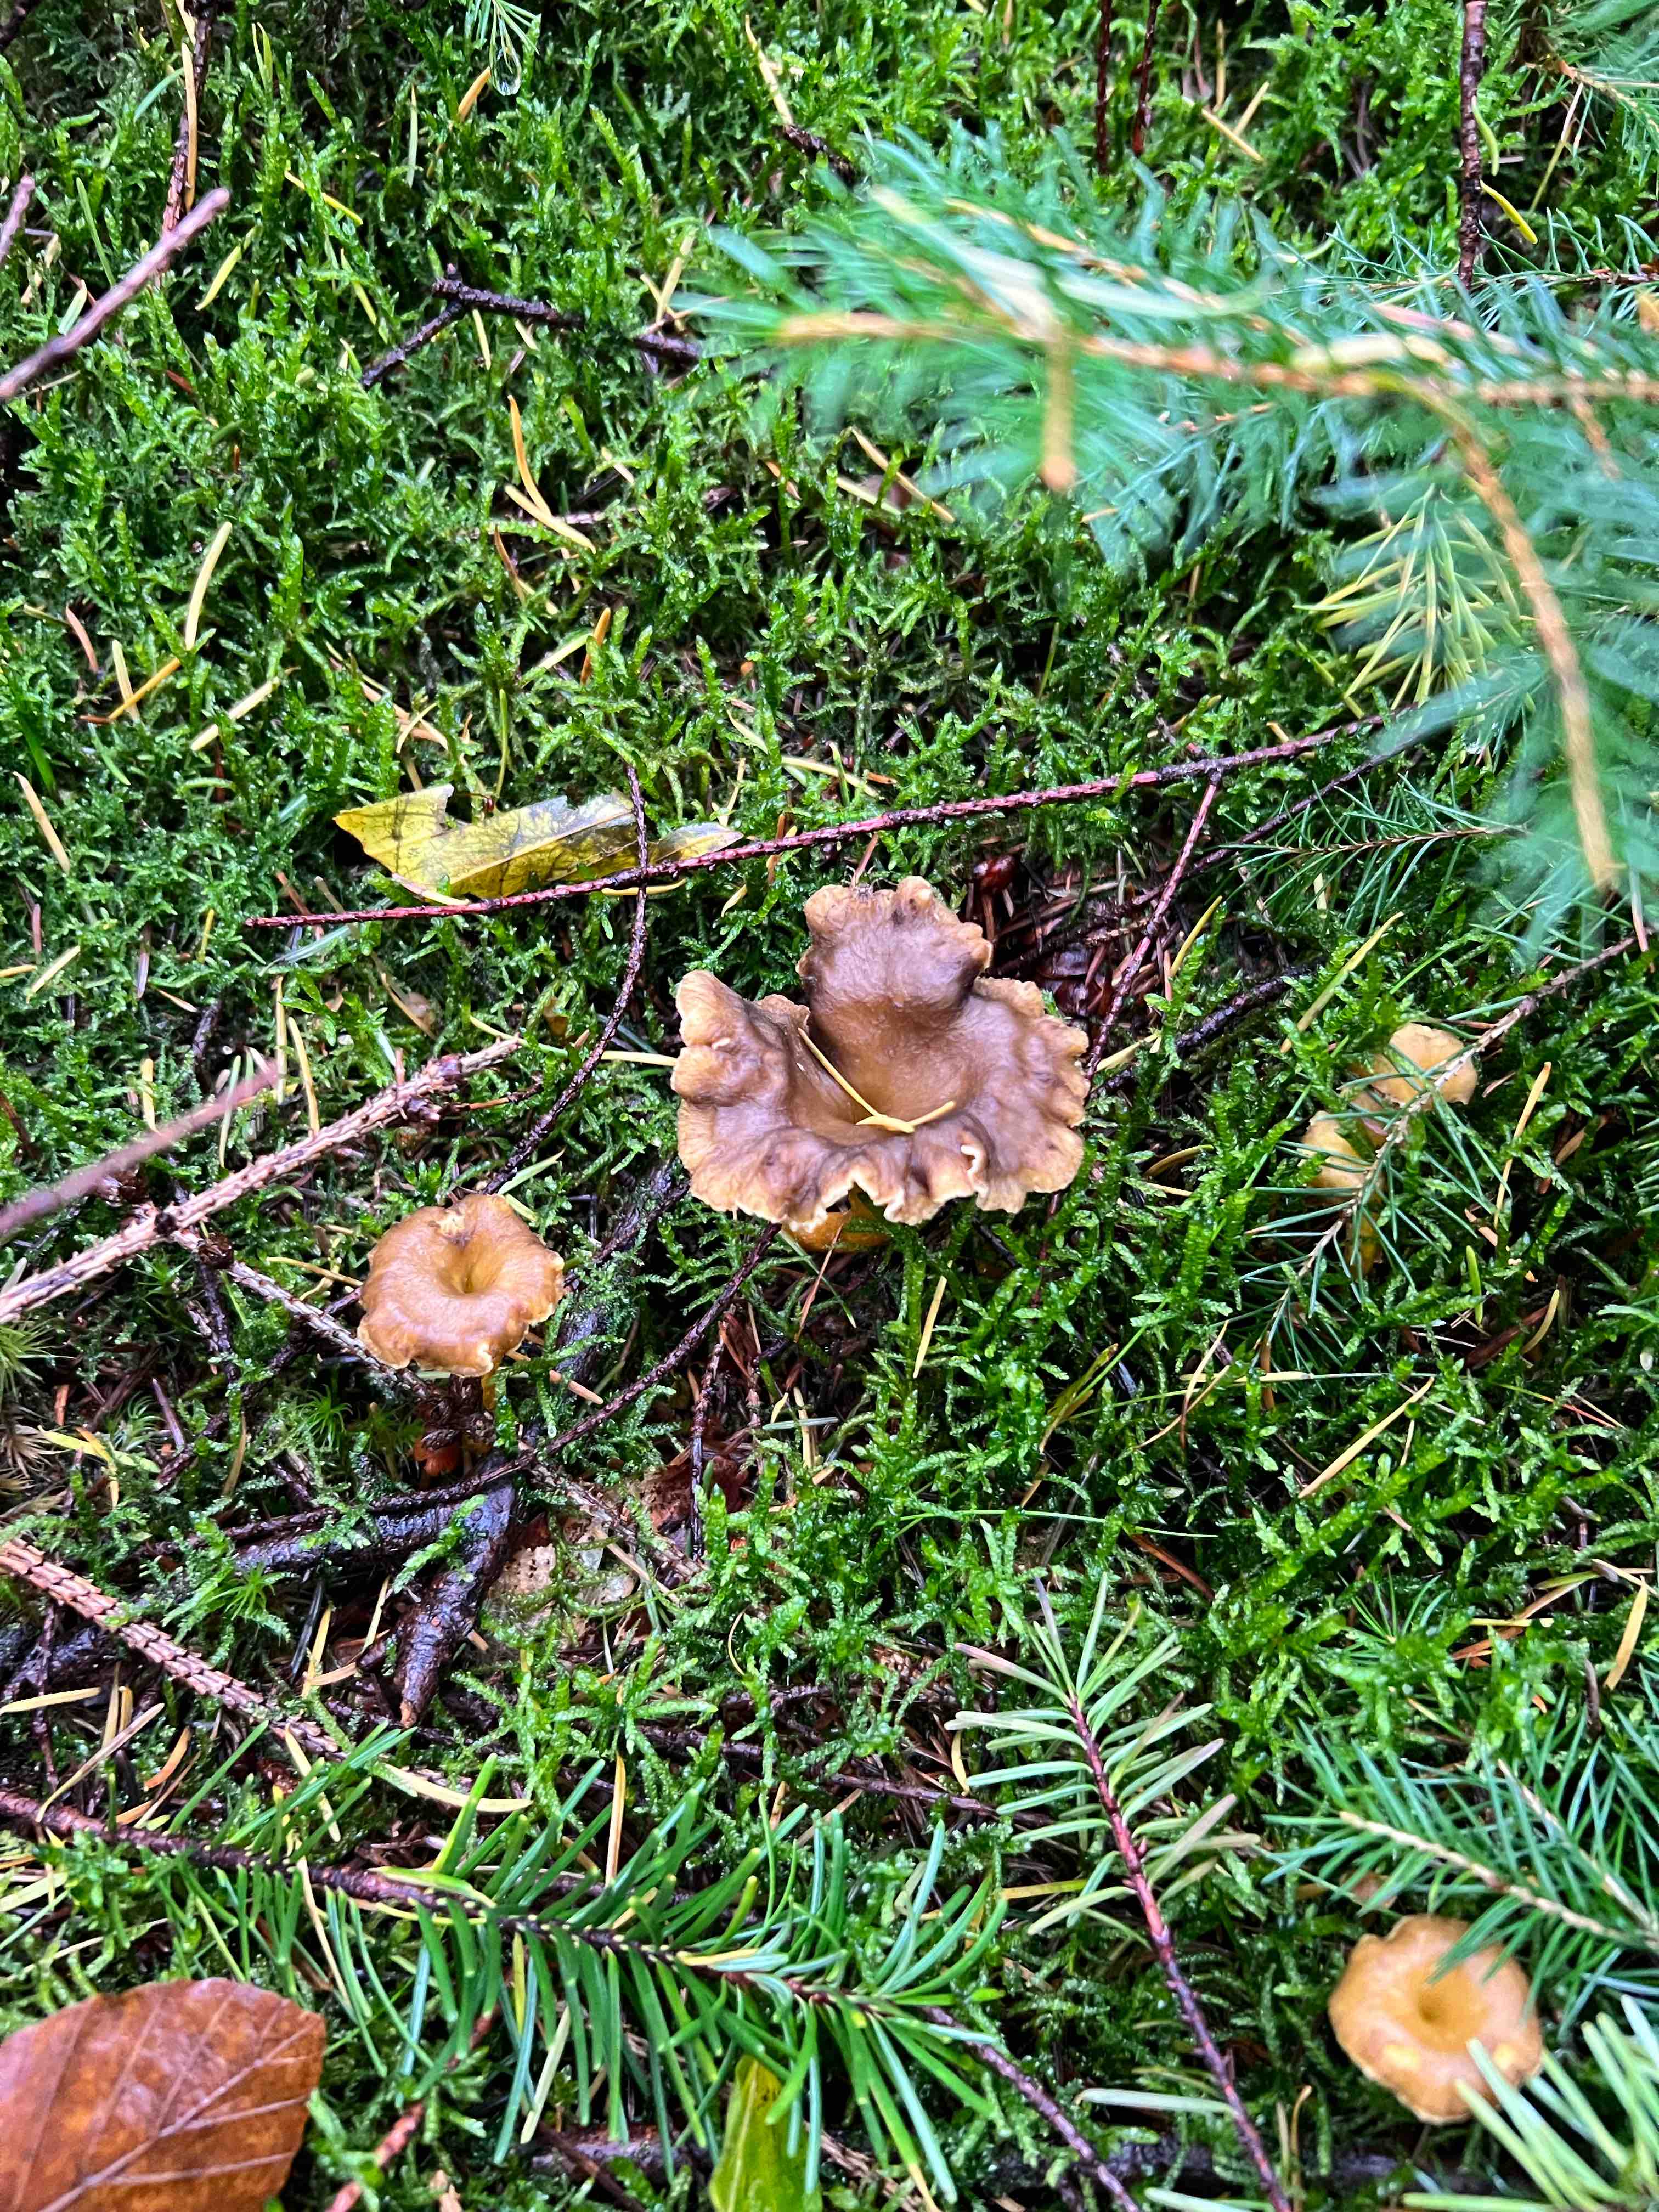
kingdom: Fungi
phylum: Basidiomycota
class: Agaricomycetes
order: Cantharellales
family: Hydnaceae
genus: Craterellus
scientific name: Craterellus tubaeformis
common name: tragt-kantarel
